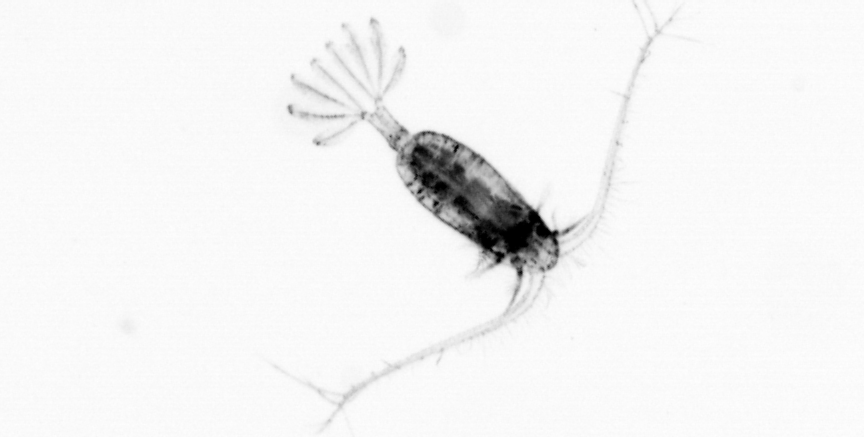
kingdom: Animalia
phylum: Arthropoda
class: Copepoda
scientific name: Copepoda
